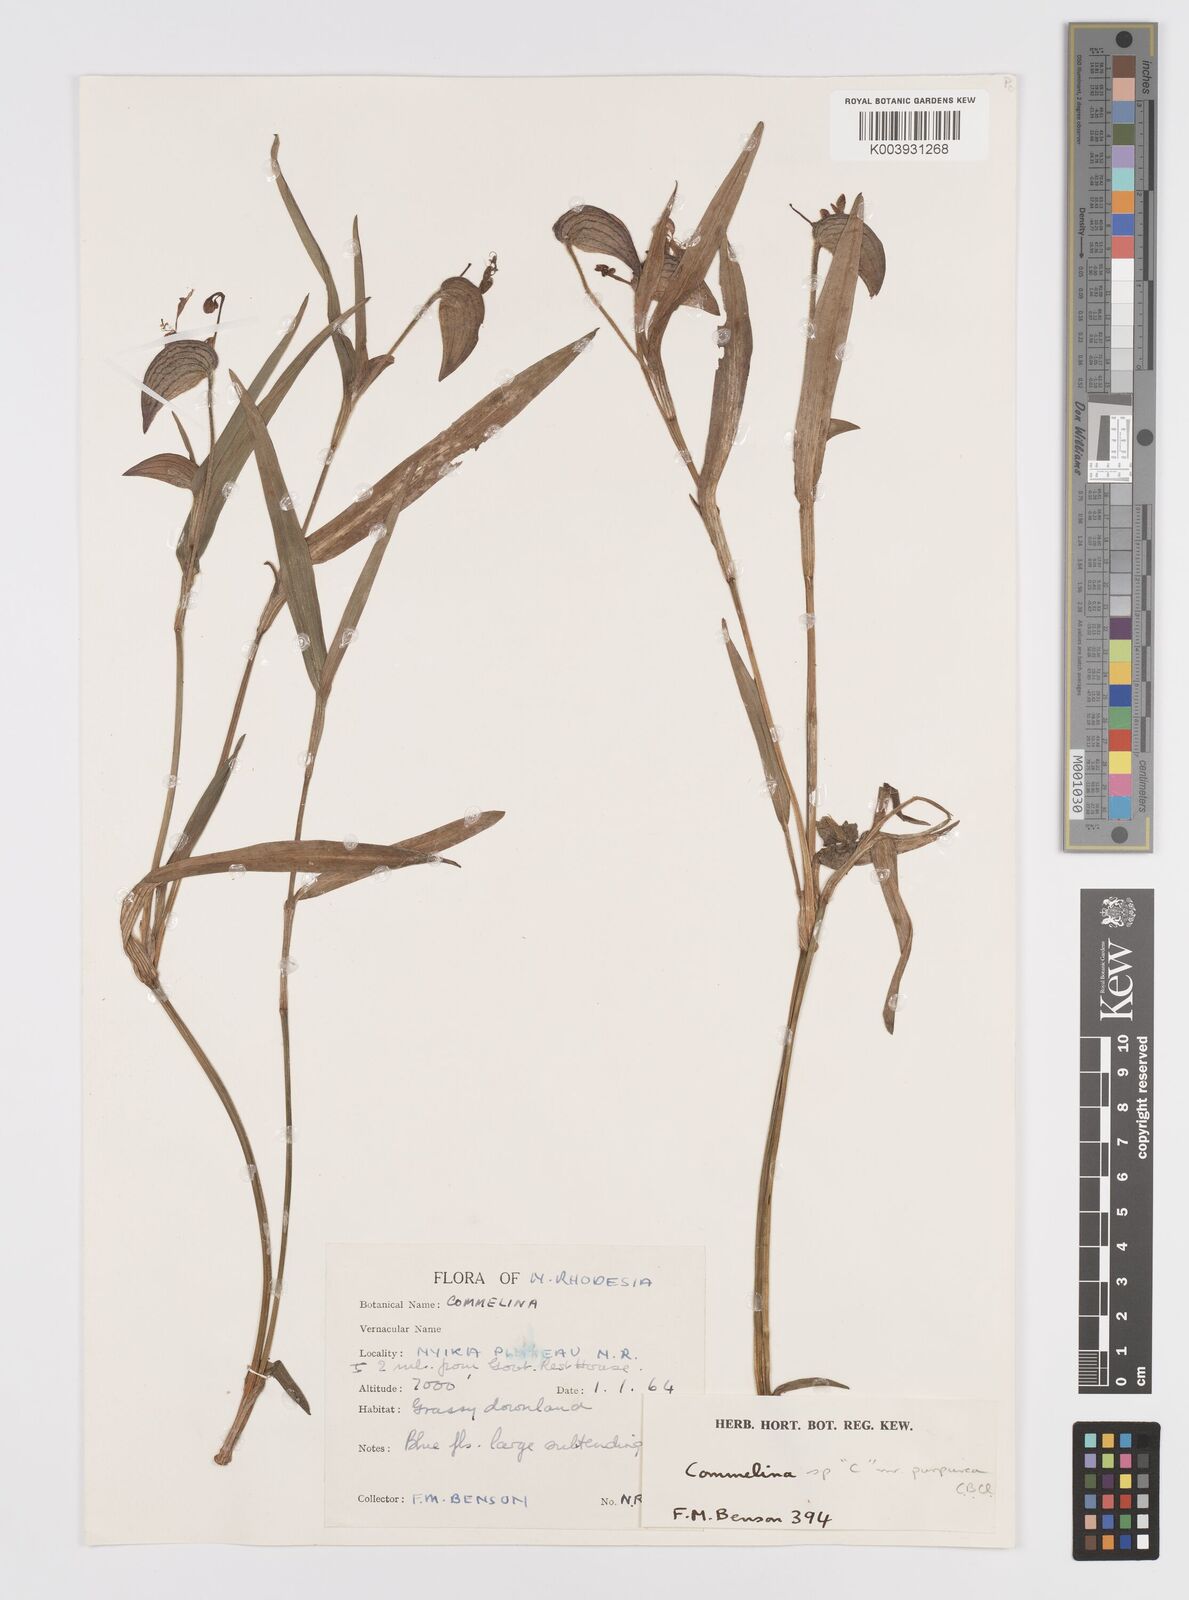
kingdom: Plantae
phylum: Tracheophyta
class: Liliopsida
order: Commelinales
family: Commelinaceae
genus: Commelina
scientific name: Commelina kituloensis
